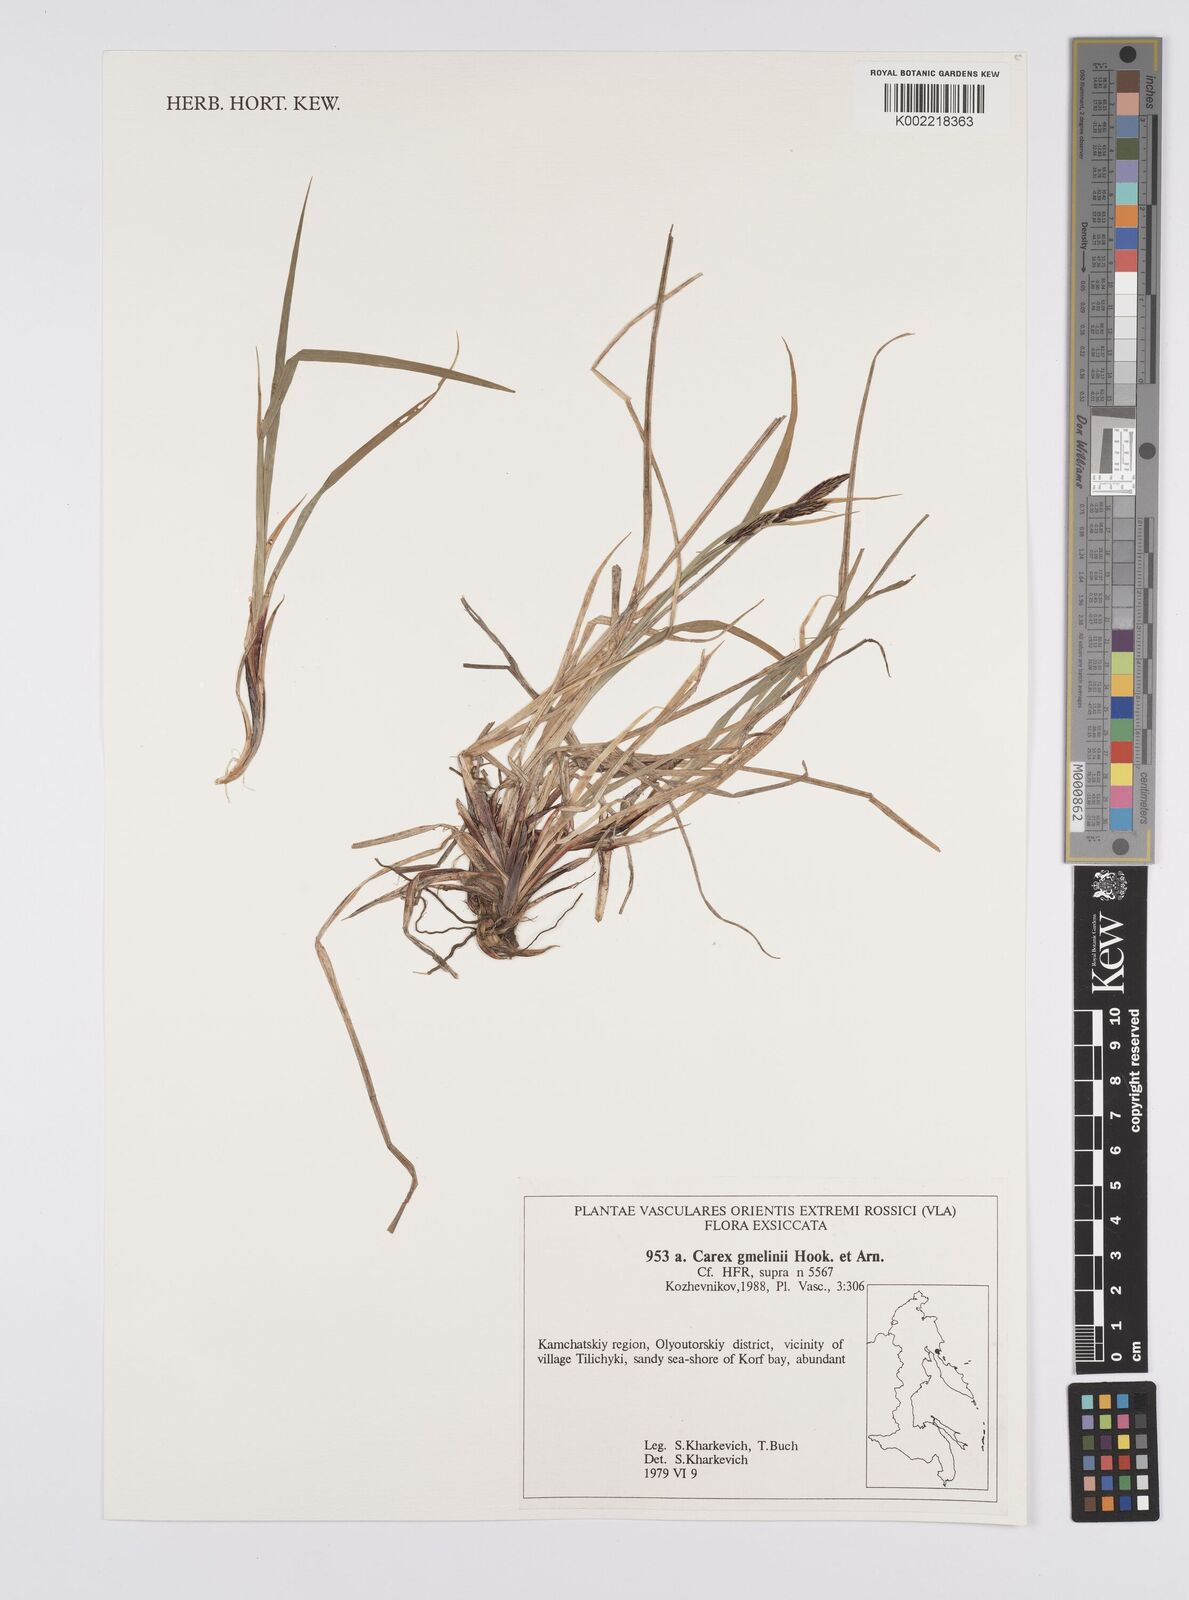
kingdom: Plantae
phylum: Tracheophyta
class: Liliopsida
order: Poales
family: Cyperaceae
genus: Carex
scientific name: Carex gmelinii
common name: Gmelin's sedge
